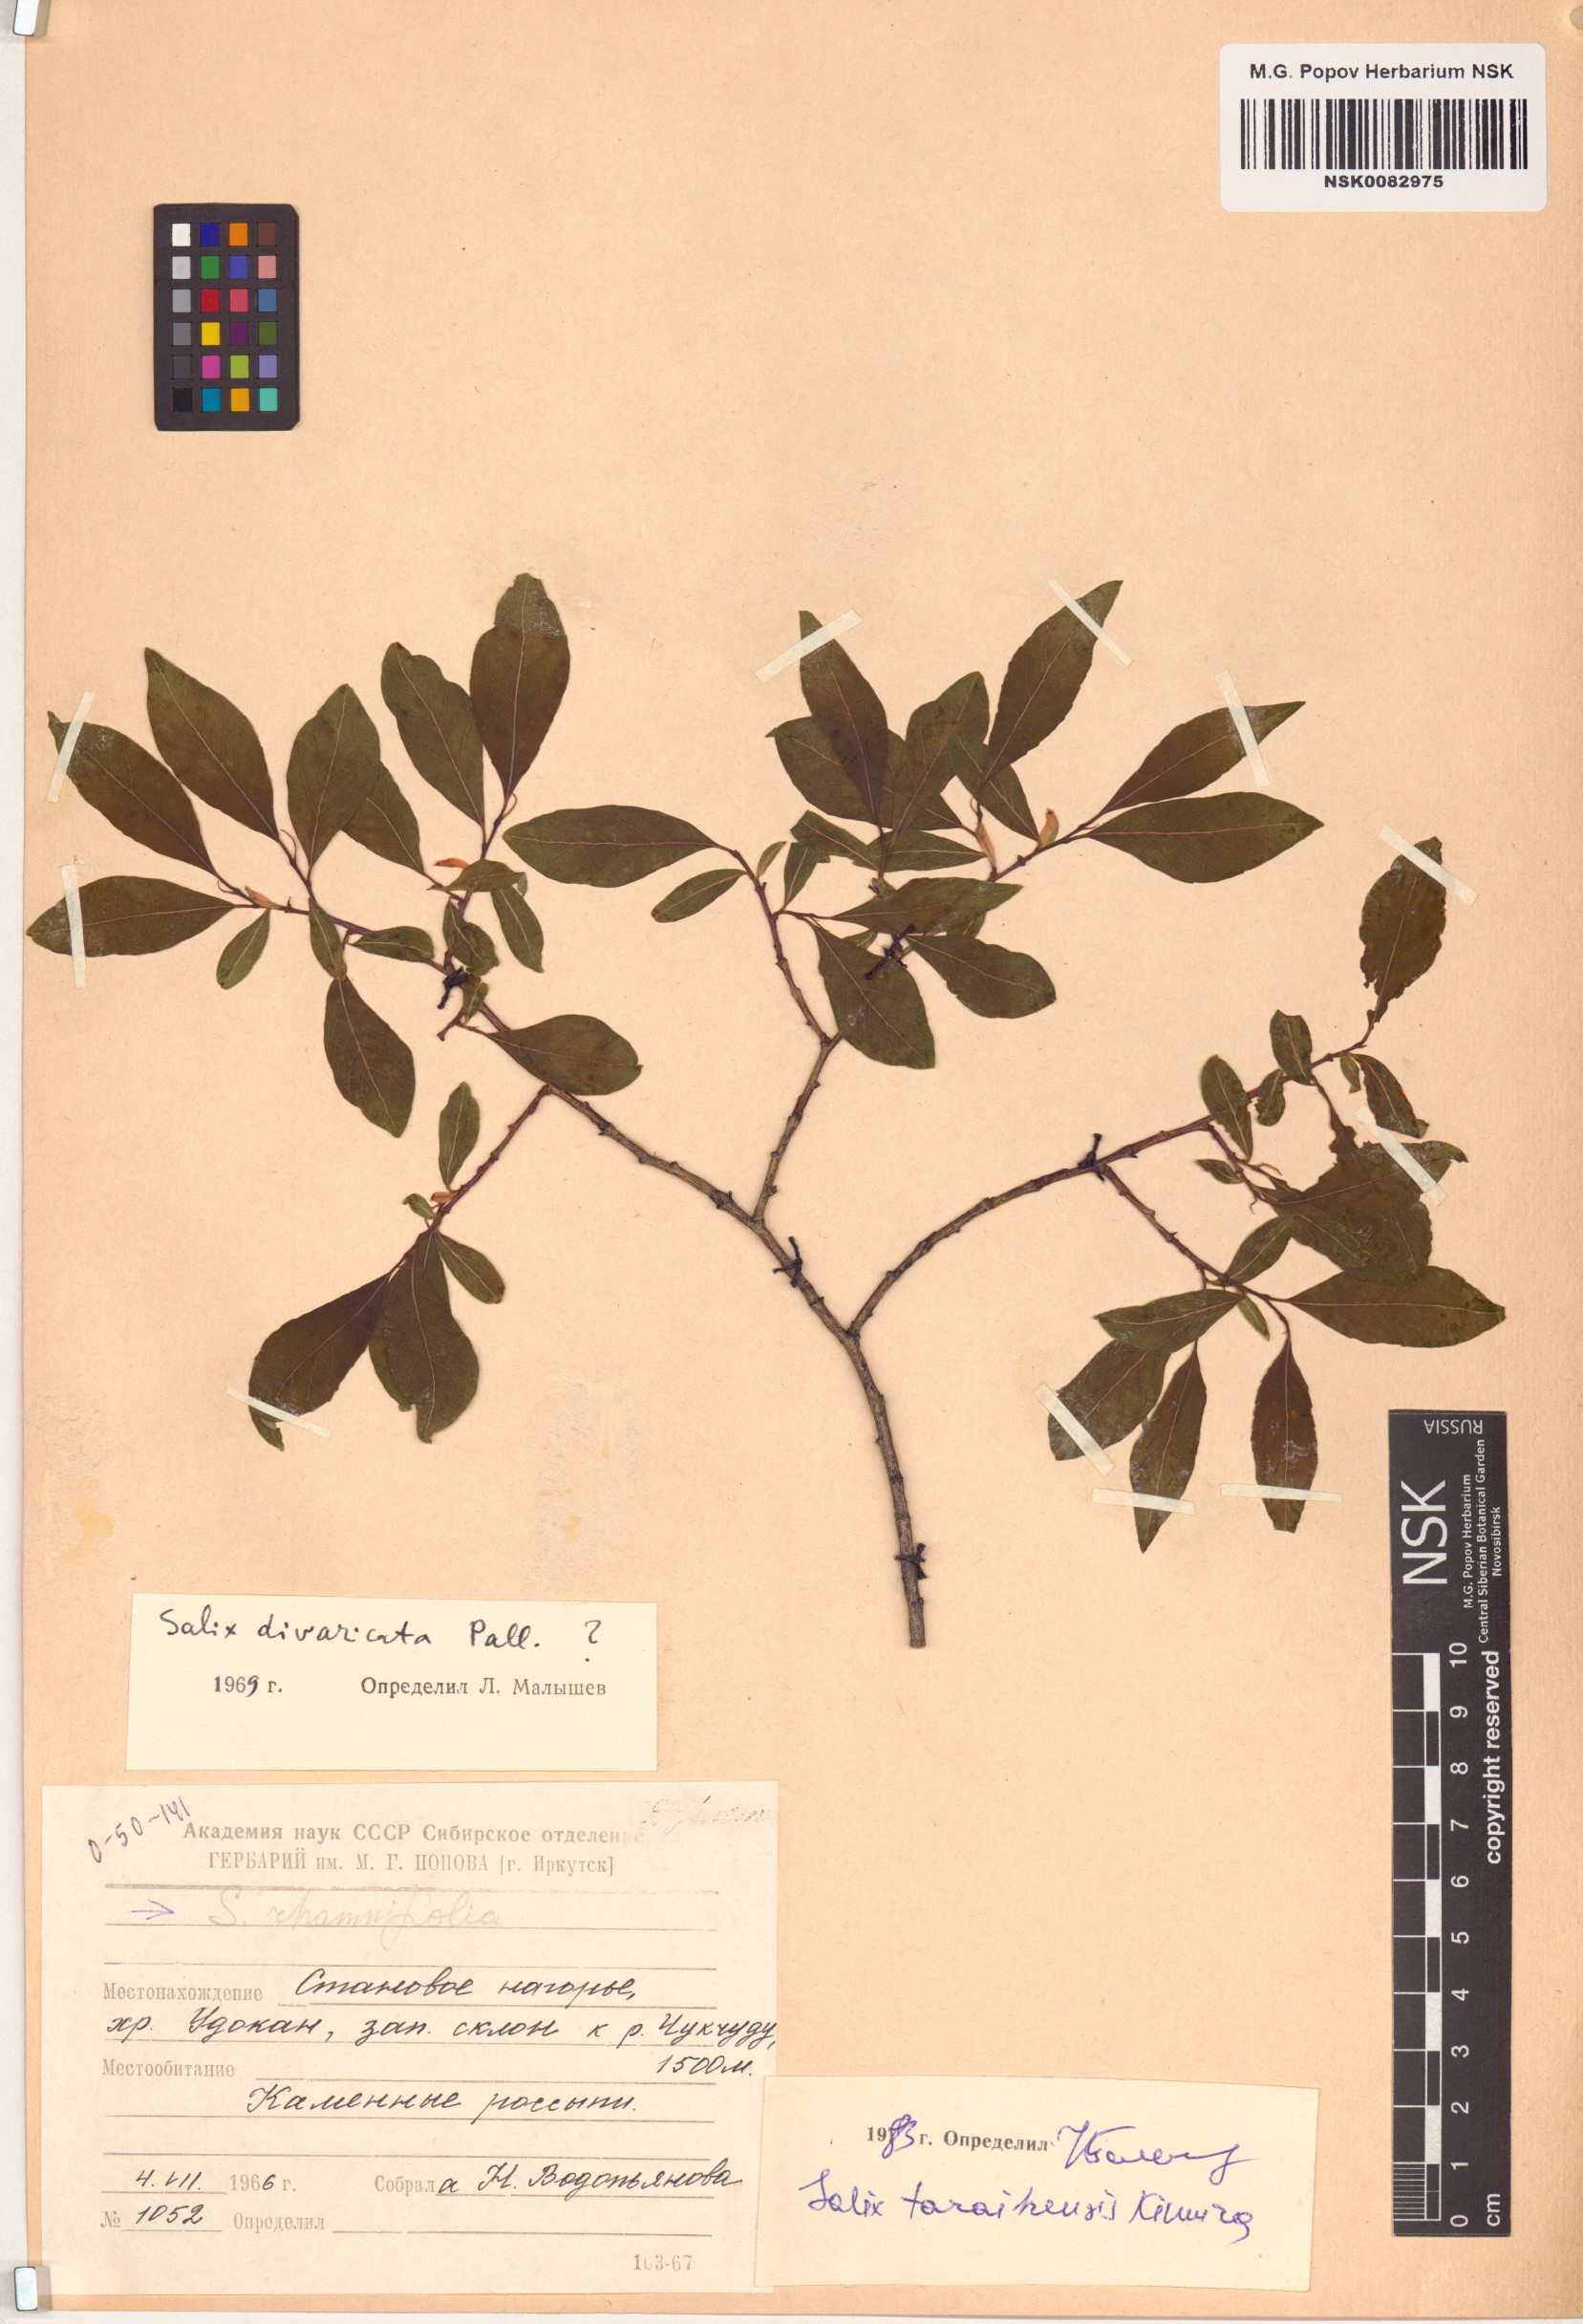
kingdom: Plantae
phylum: Tracheophyta
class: Magnoliopsida
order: Malpighiales
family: Salicaceae
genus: Salix
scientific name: Salix taraikensis
